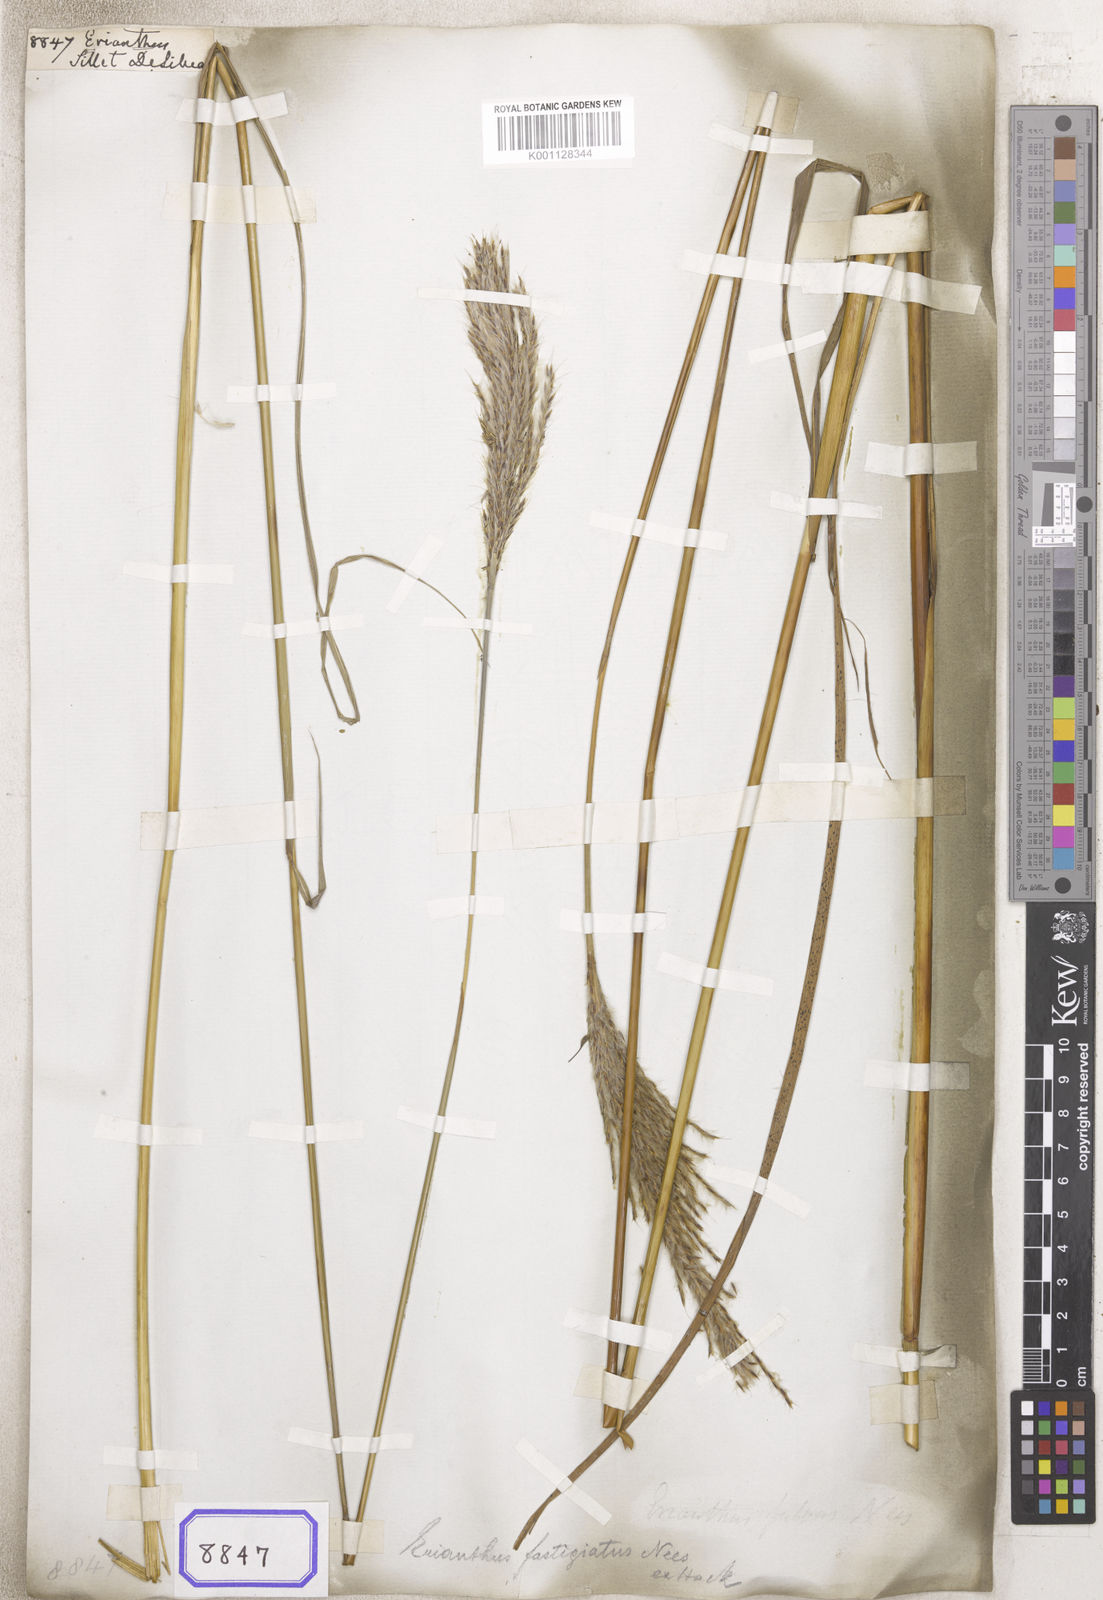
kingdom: Plantae
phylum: Tracheophyta
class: Liliopsida
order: Poales
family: Poaceae
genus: Erianthus
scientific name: Erianthus
